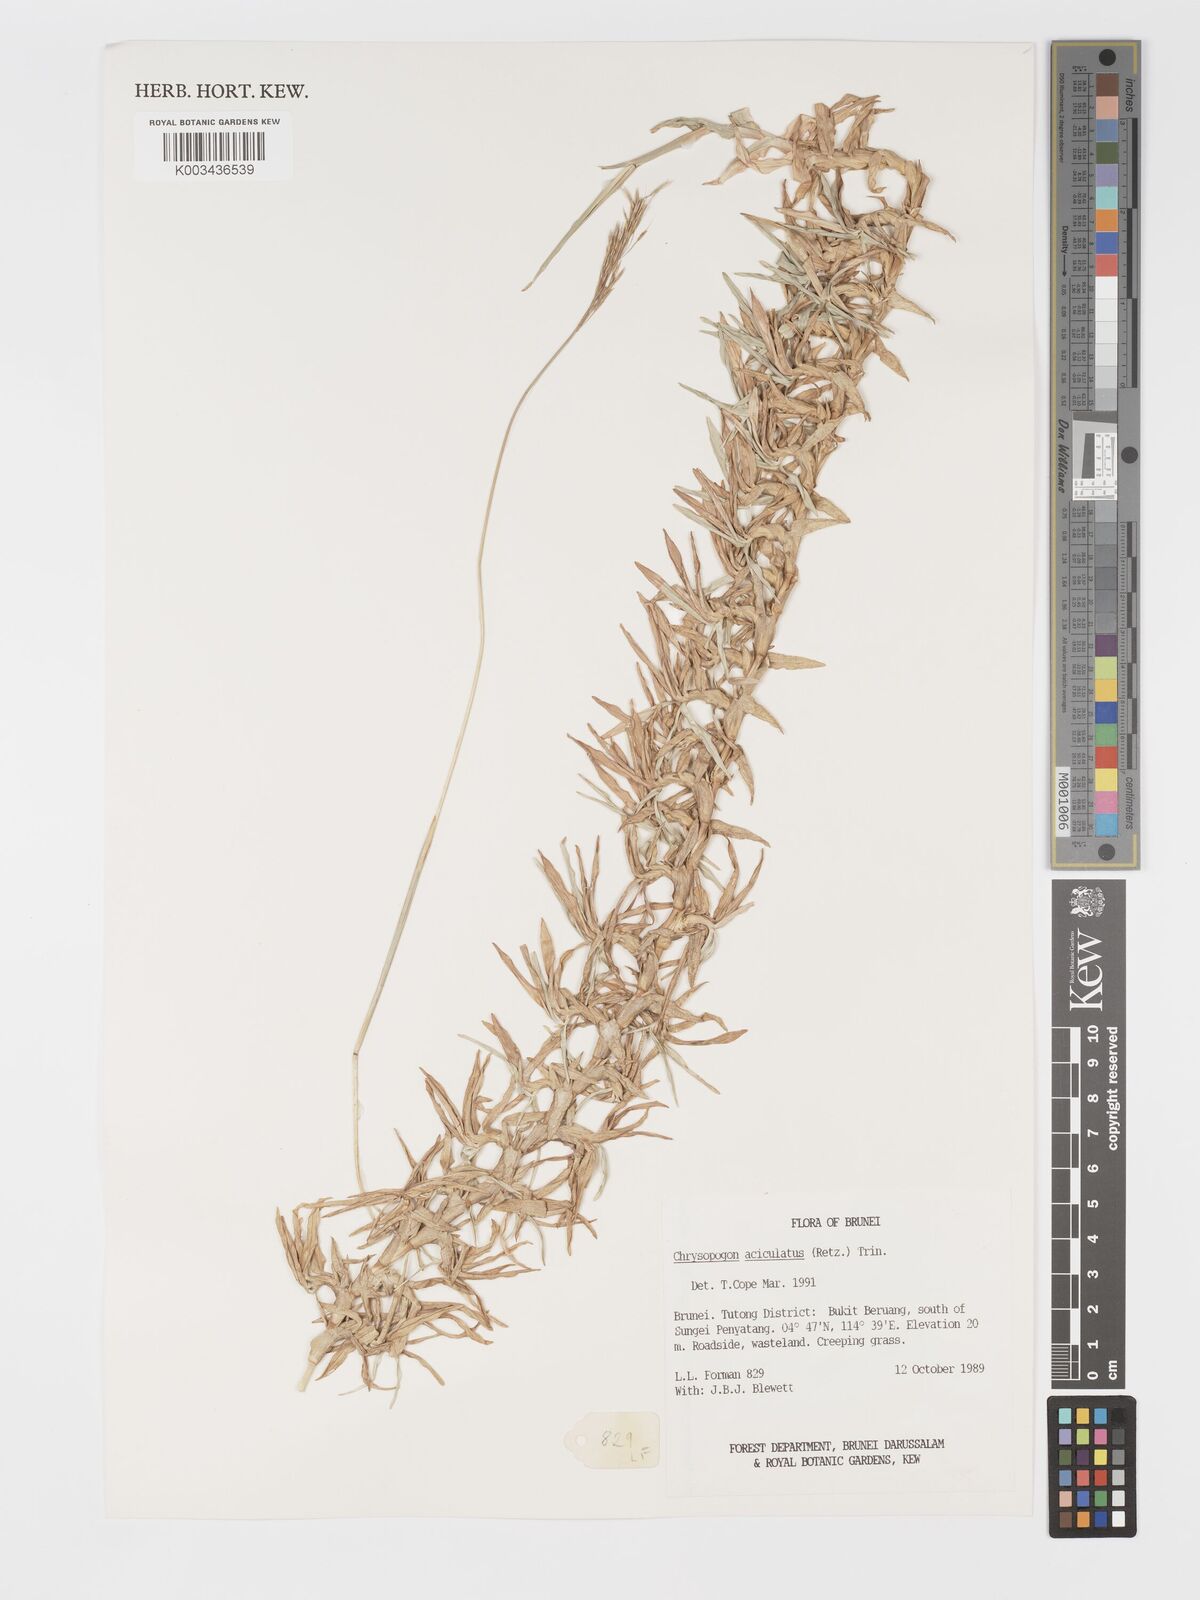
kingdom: Plantae
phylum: Tracheophyta
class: Liliopsida
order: Poales
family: Poaceae
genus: Chrysopogon
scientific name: Chrysopogon aciculatus
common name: Pilipiliula
